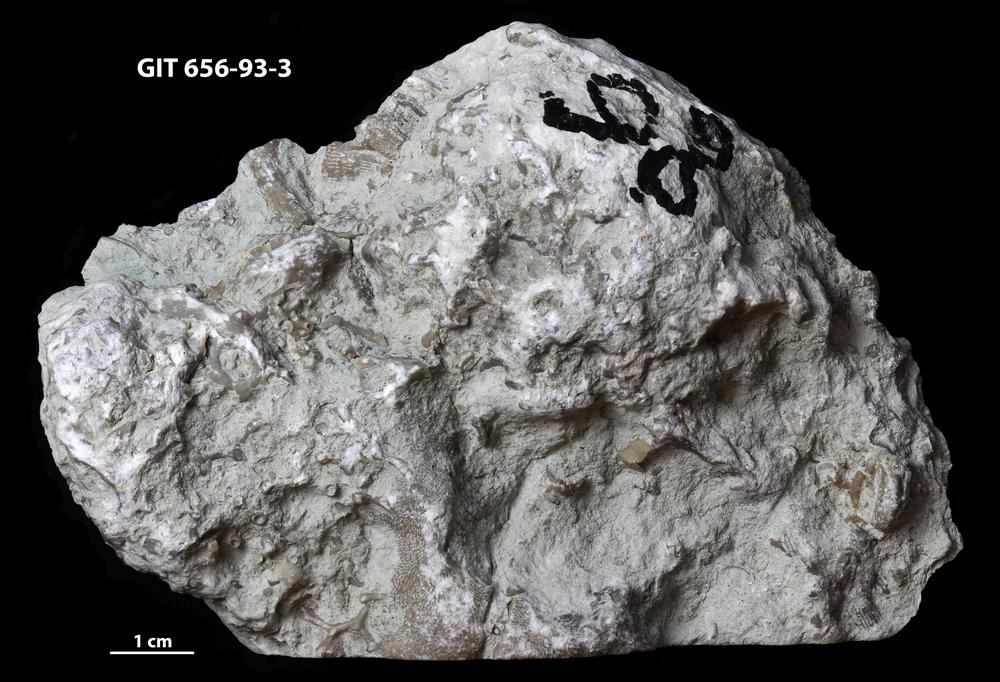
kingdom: Animalia
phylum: Cnidaria
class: Anthozoa
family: Auloporidae
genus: Aulopora
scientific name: Aulopora
